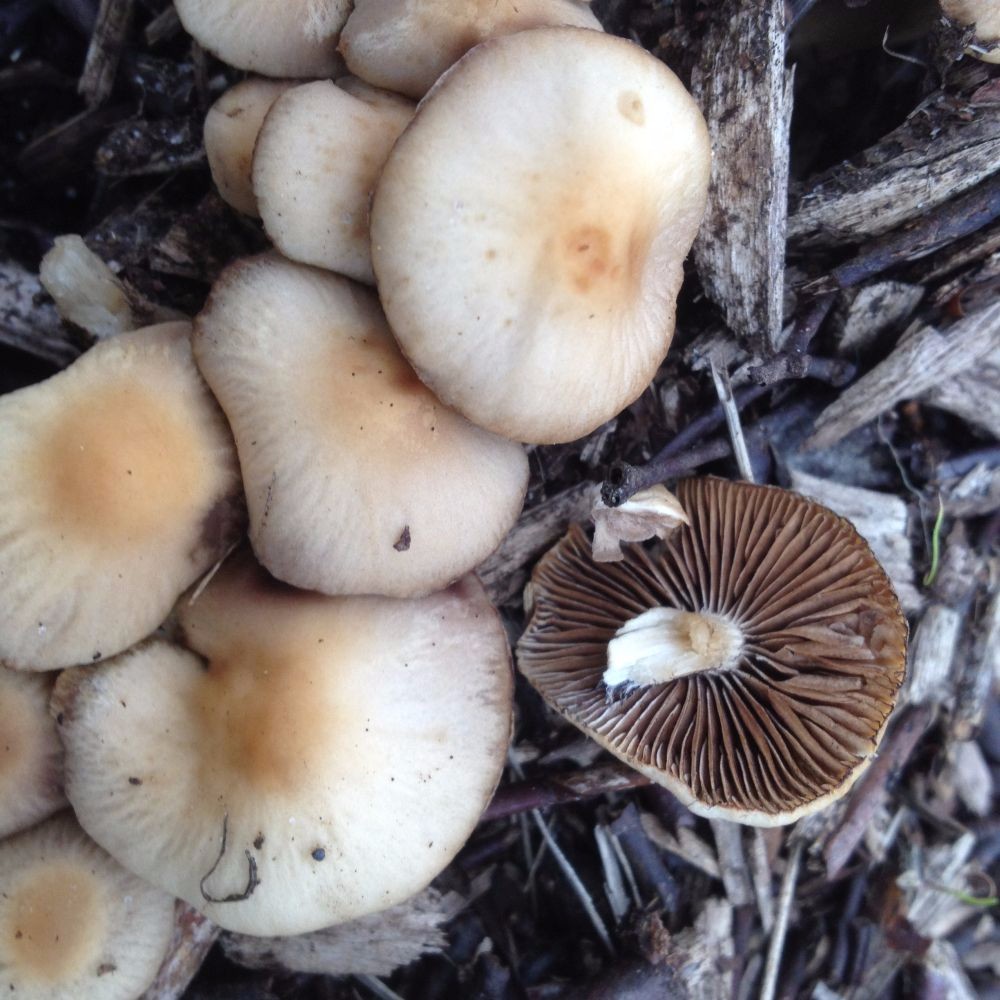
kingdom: Fungi
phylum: Basidiomycota
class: Agaricomycetes
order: Agaricales
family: Psathyrellaceae
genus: Psathyrella
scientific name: Psathyrella
